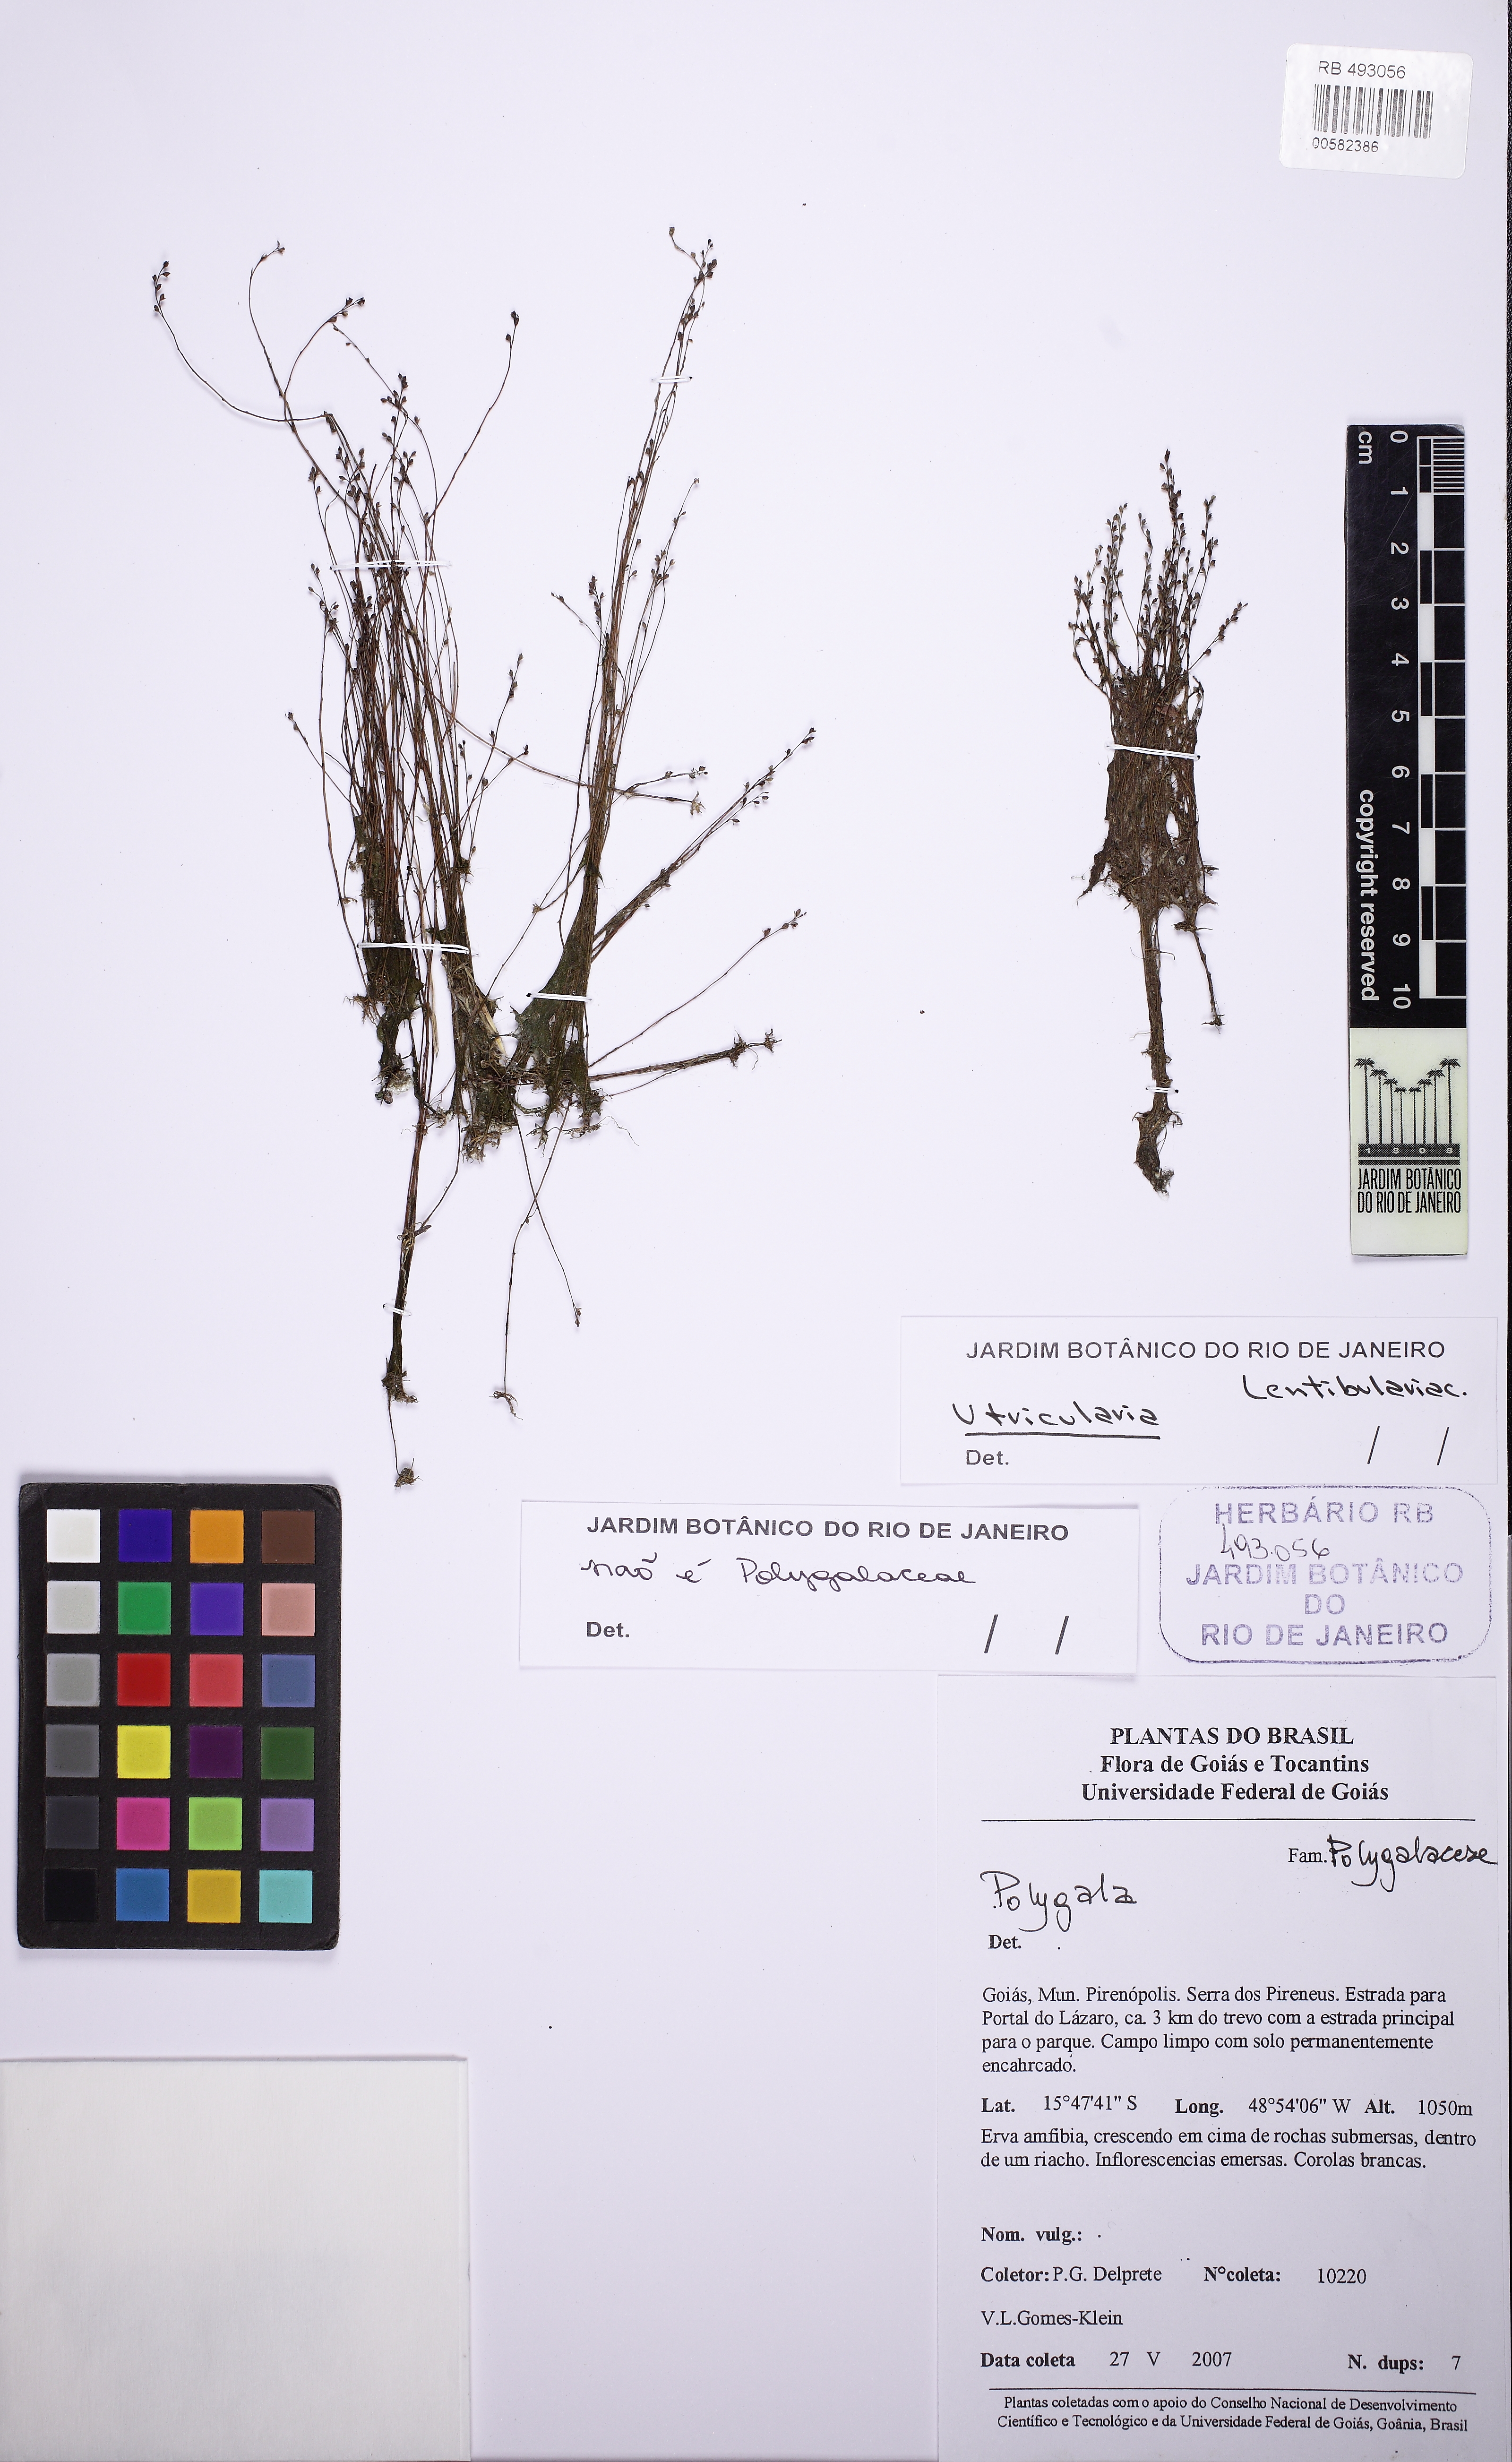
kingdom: Plantae
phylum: Tracheophyta
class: Magnoliopsida
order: Lamiales
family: Lentibulariaceae
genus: Utricularia
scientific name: Utricularia neottioides
